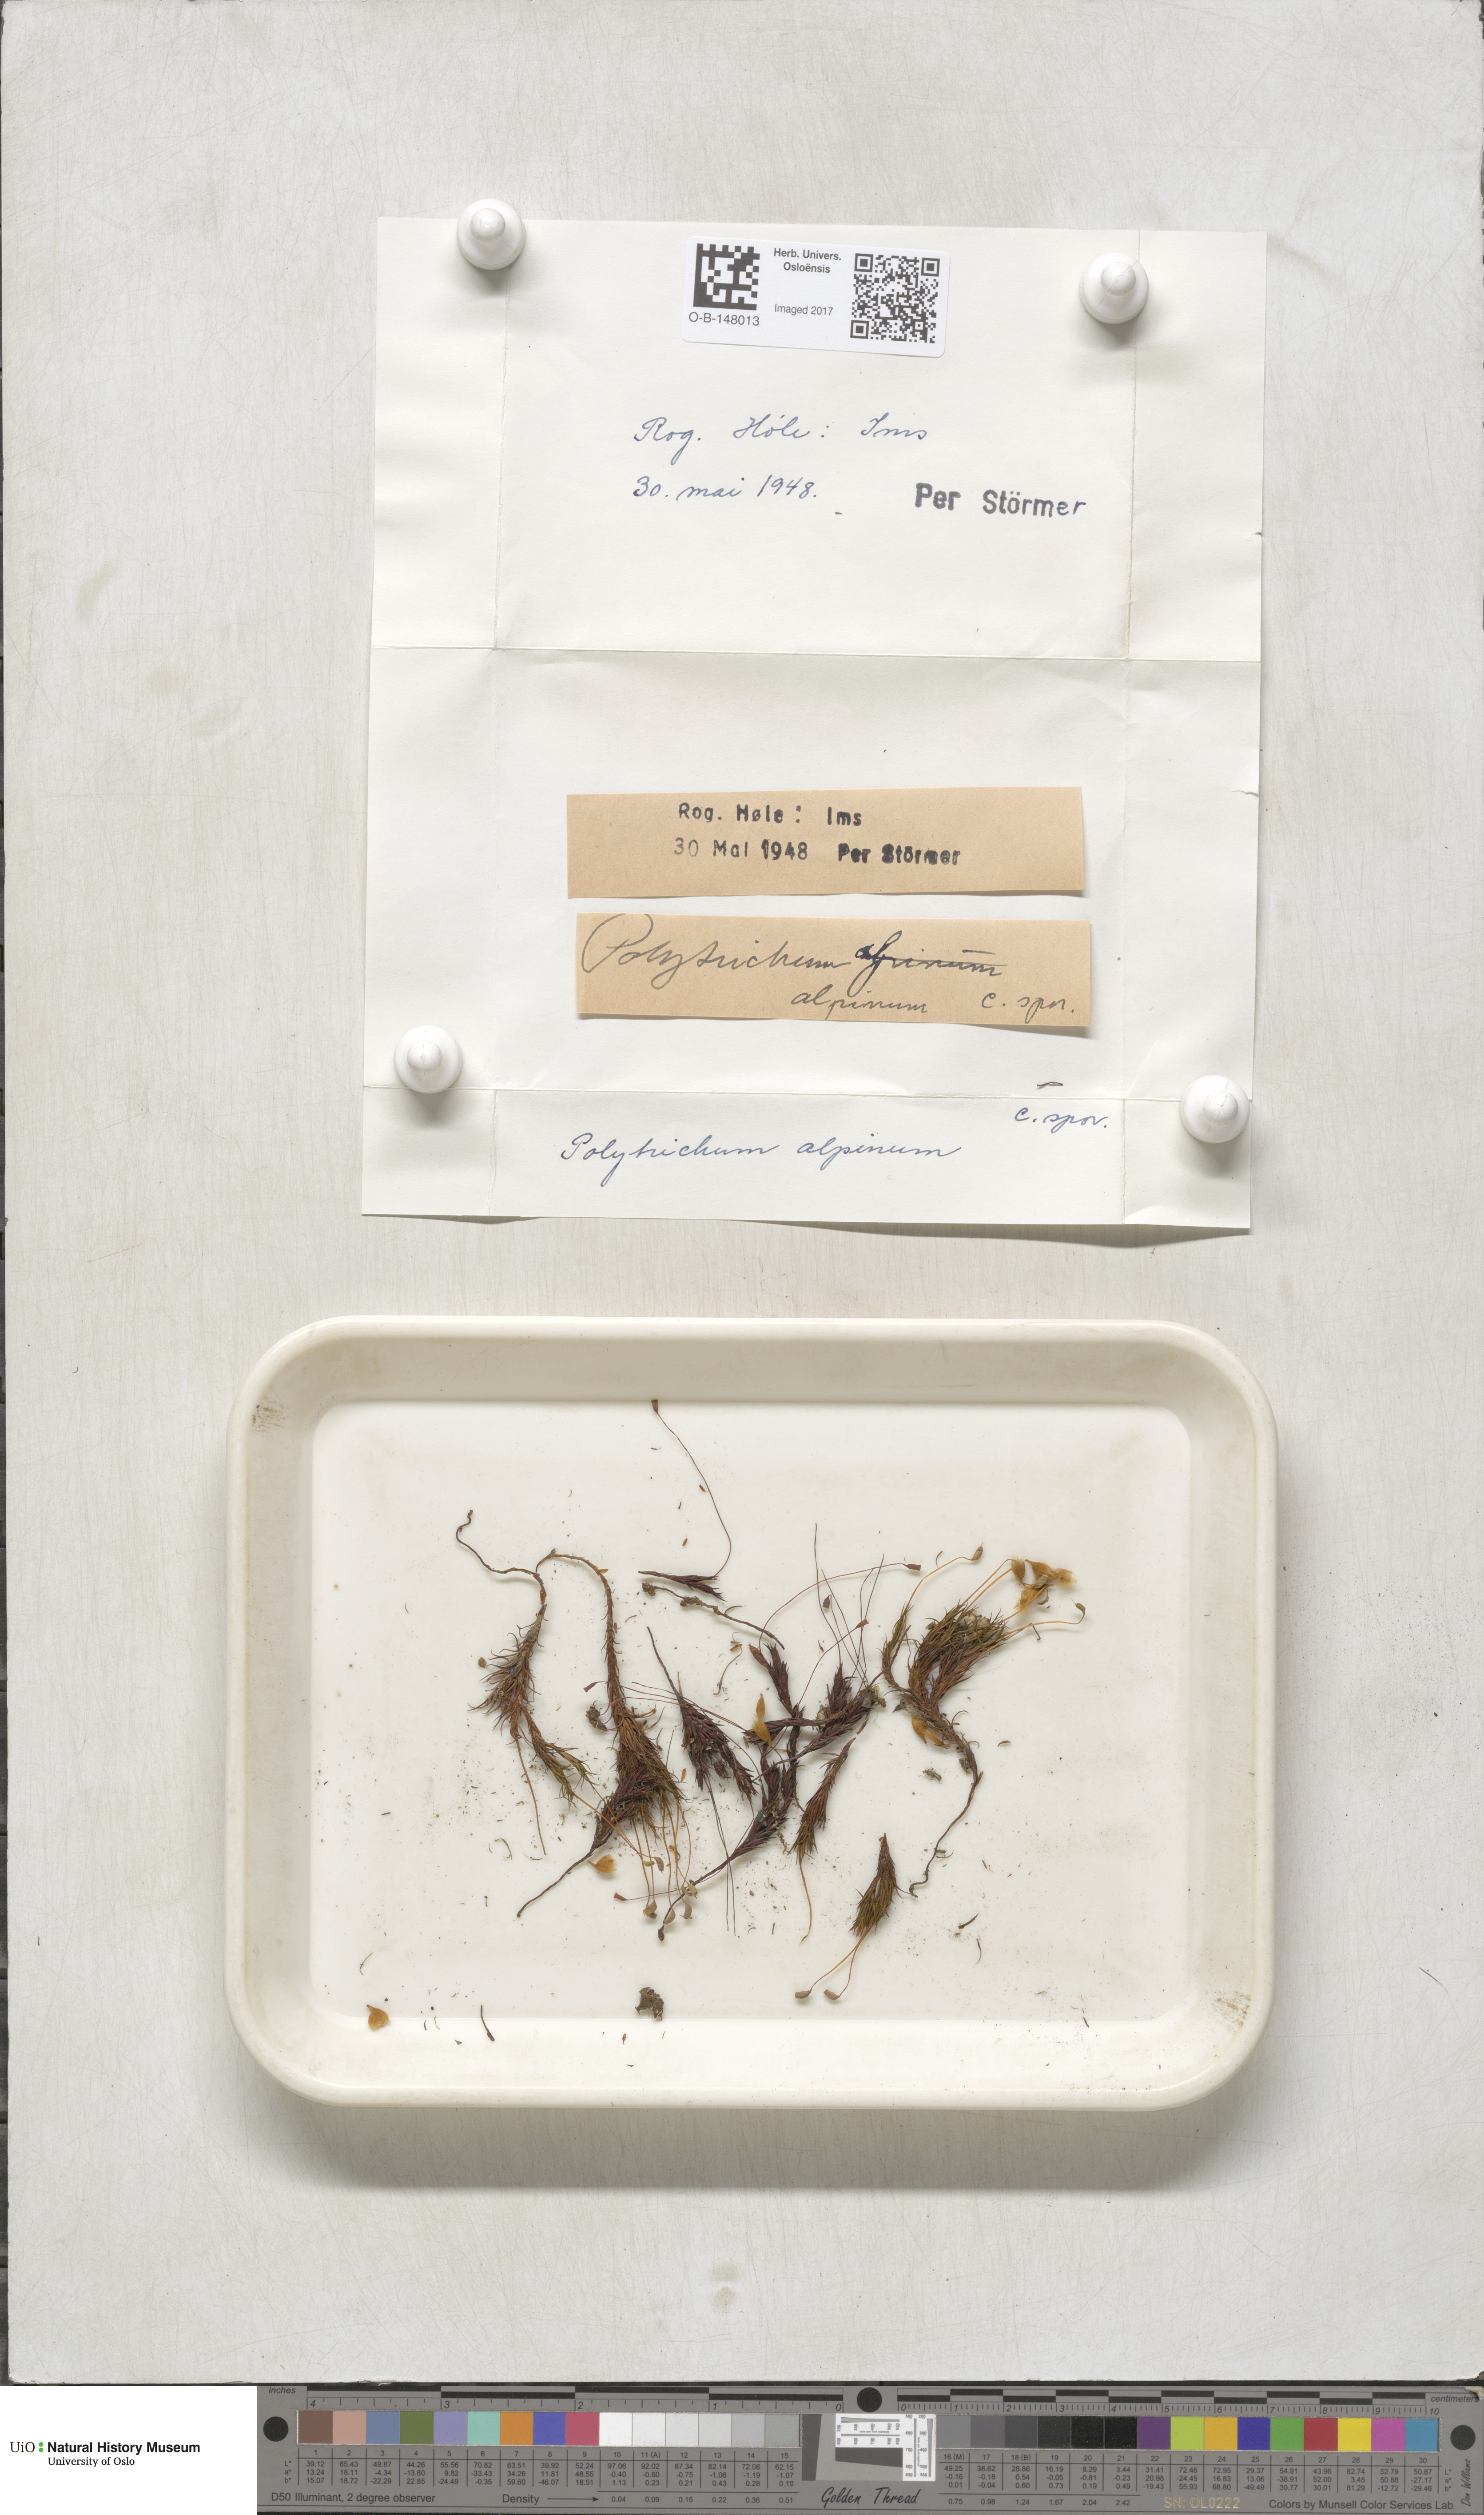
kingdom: Plantae
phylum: Bryophyta
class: Polytrichopsida
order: Polytrichales
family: Polytrichaceae
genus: Polytrichastrum
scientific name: Polytrichastrum alpinum
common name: Alpine haircap
